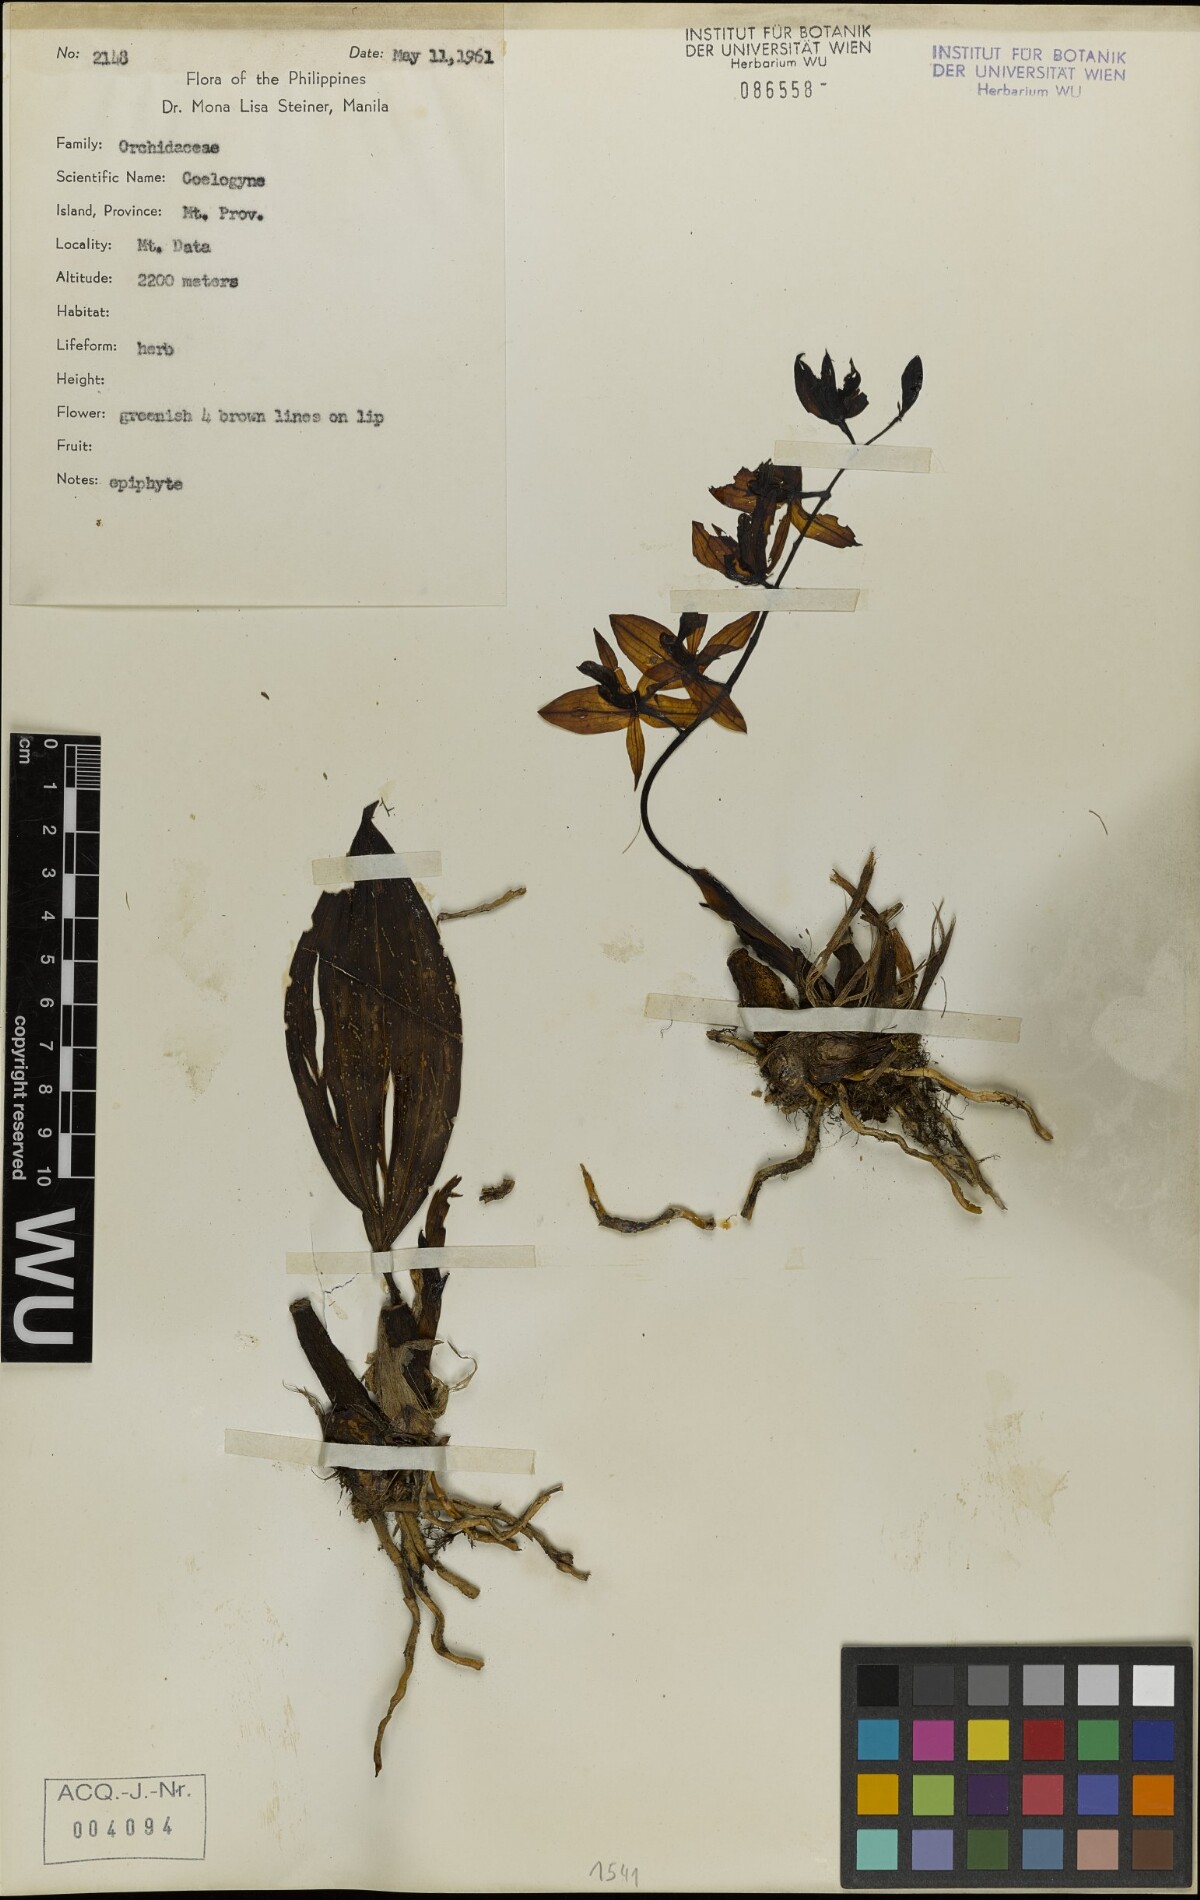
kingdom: Plantae
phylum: Tracheophyta
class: Liliopsida
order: Asparagales
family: Orchidaceae
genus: Coelogyne
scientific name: Coelogyne
